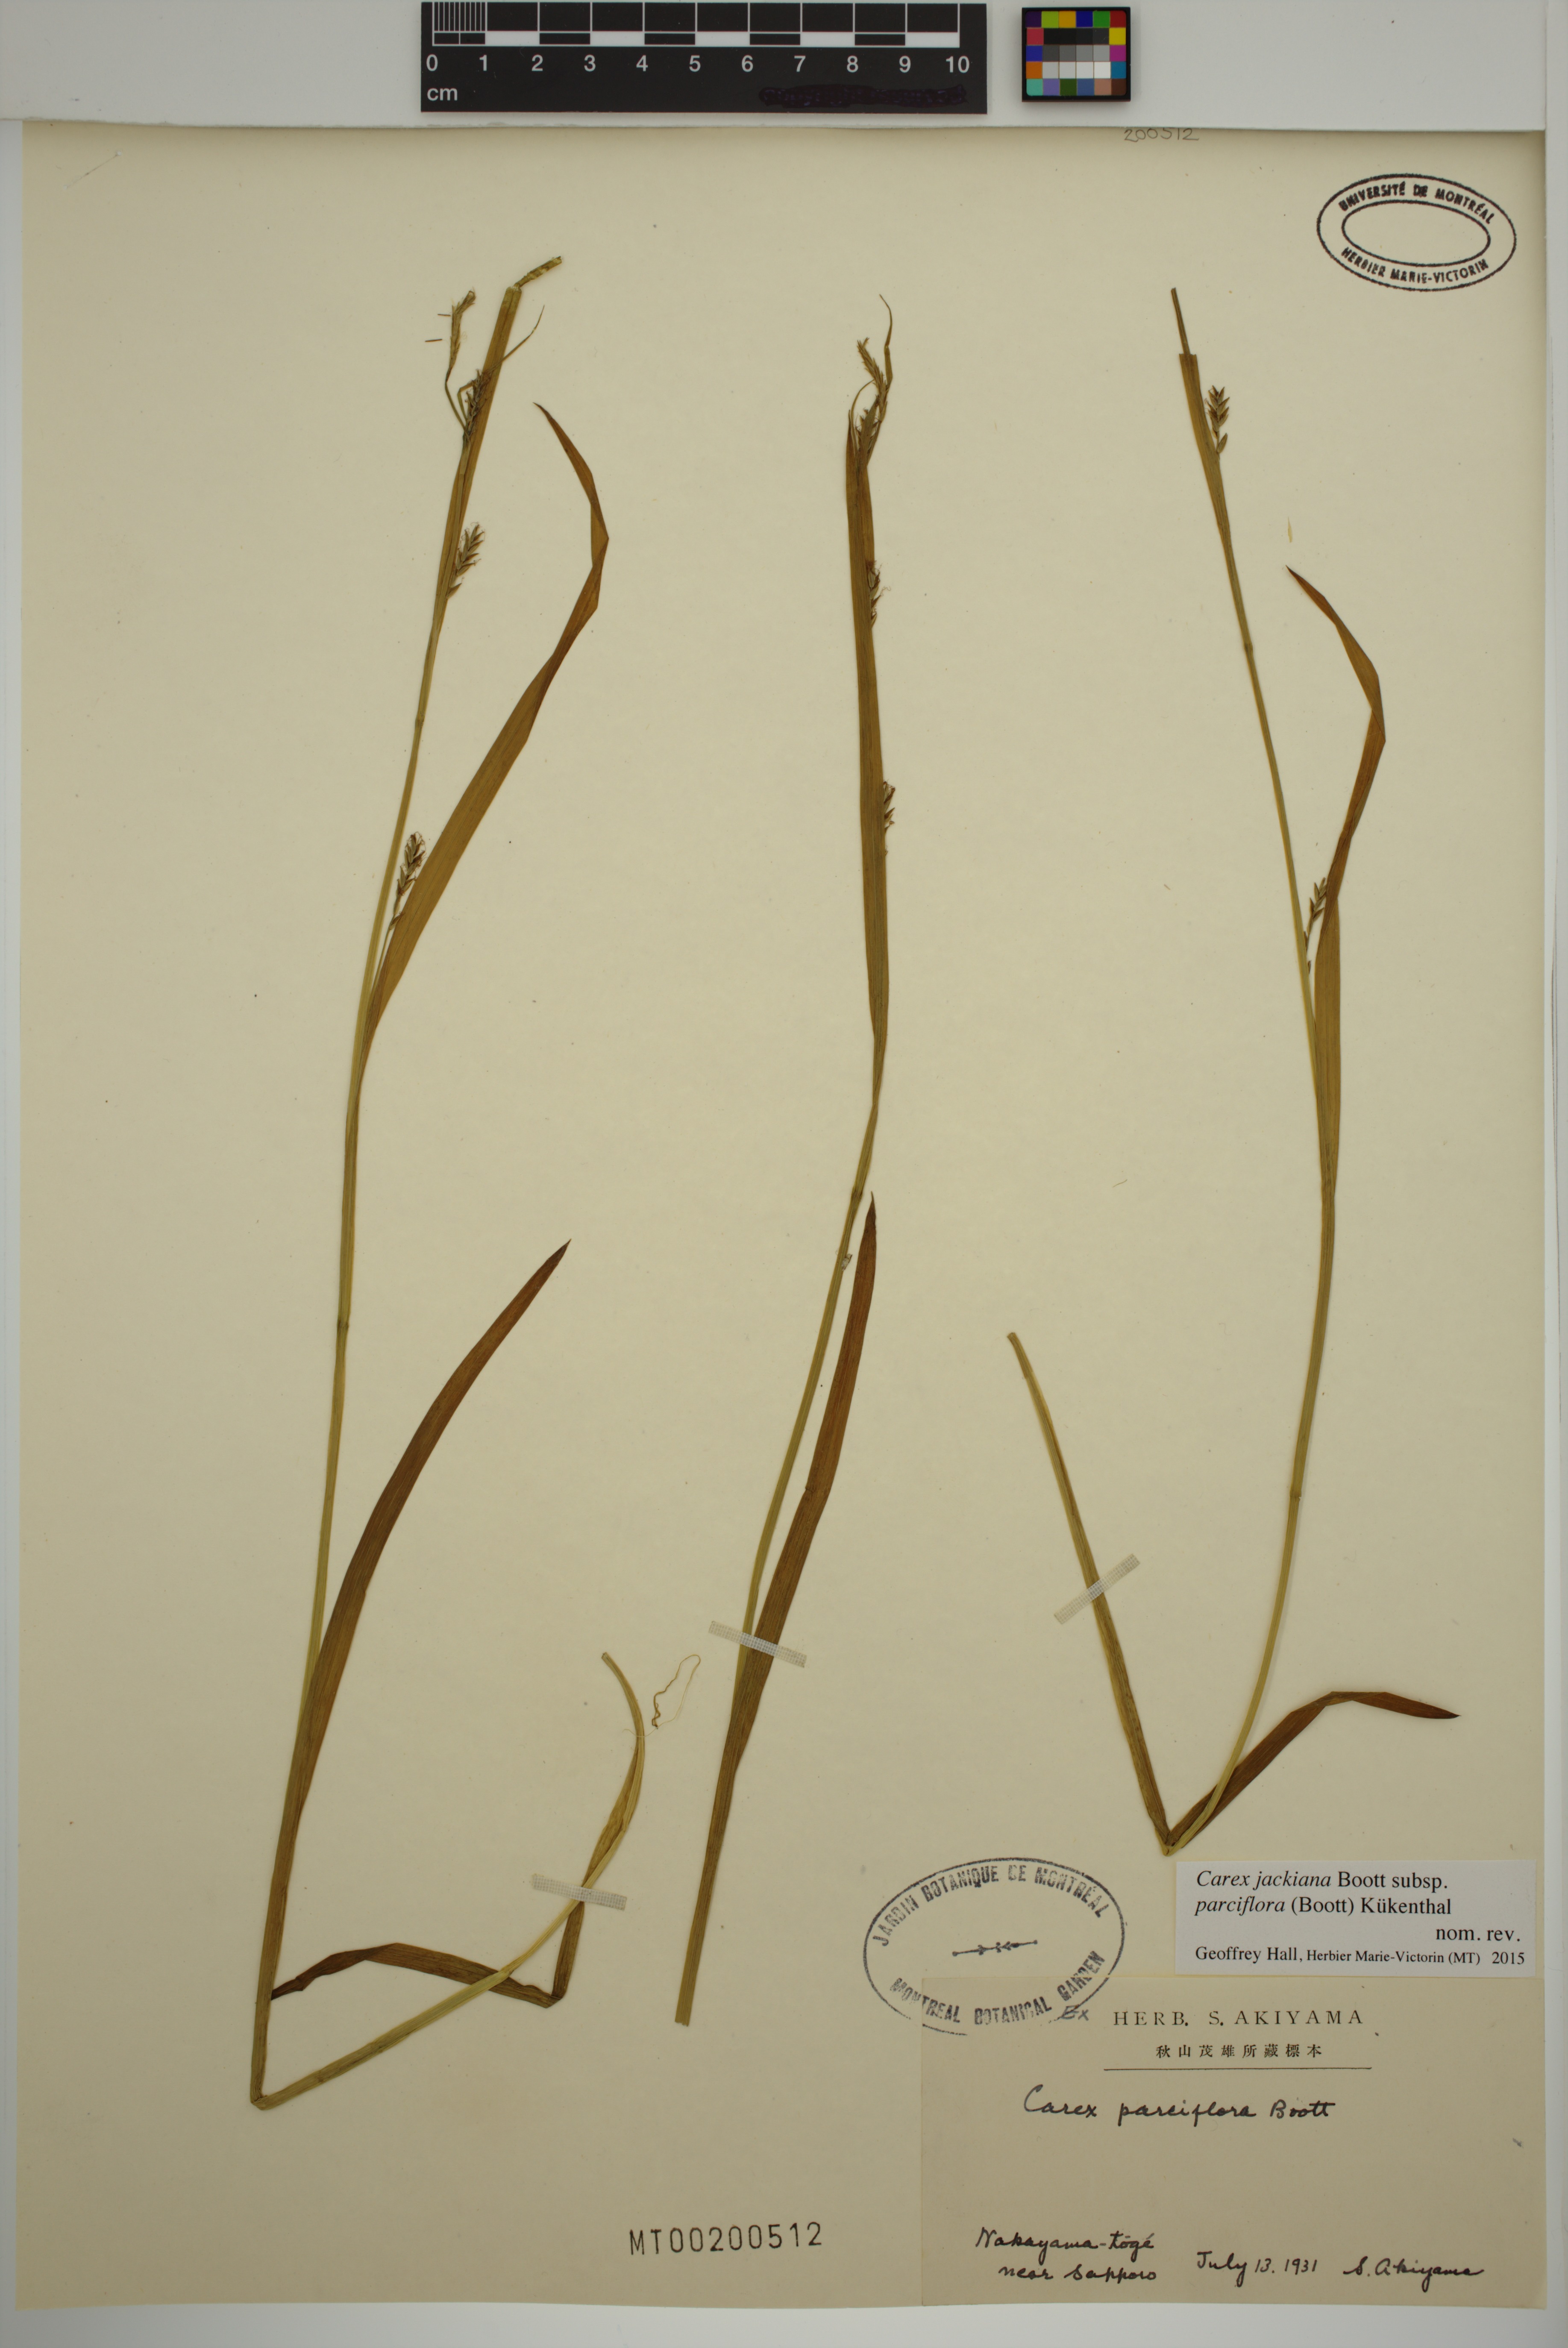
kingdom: Plantae
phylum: Tracheophyta
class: Liliopsida
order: Poales
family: Cyperaceae
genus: Carex
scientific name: Carex parciflora
